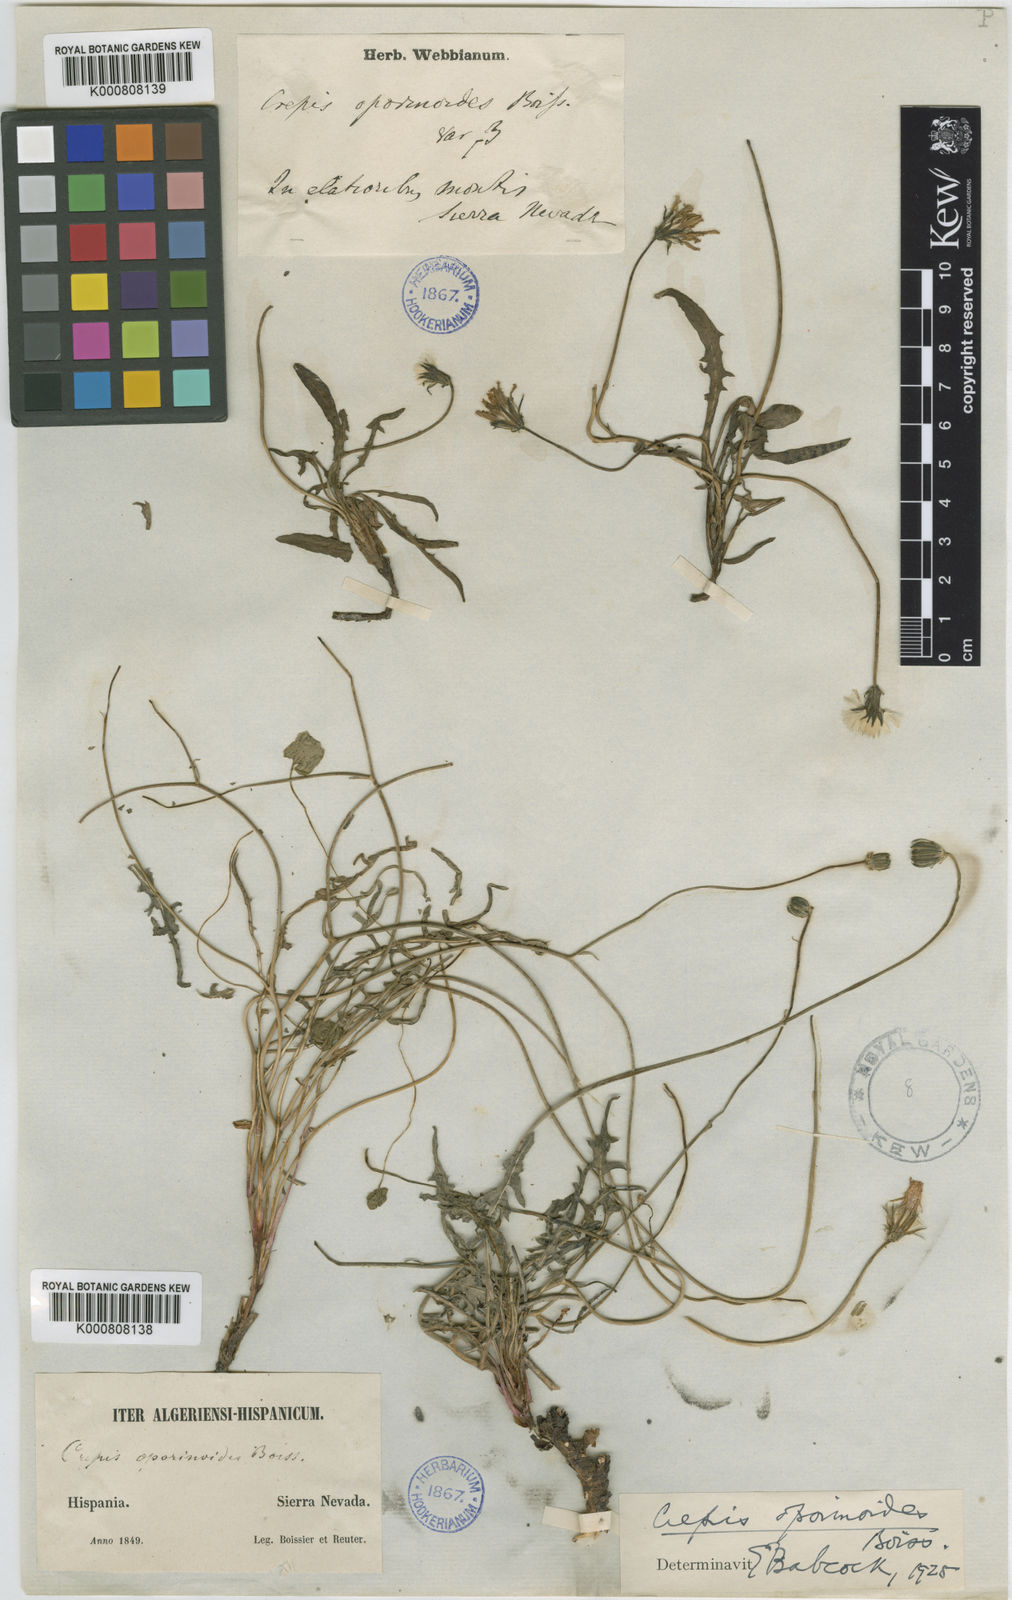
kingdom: Plantae
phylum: Tracheophyta
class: Magnoliopsida
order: Asterales
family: Asteraceae
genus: Crepis
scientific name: Crepis oporinoides
